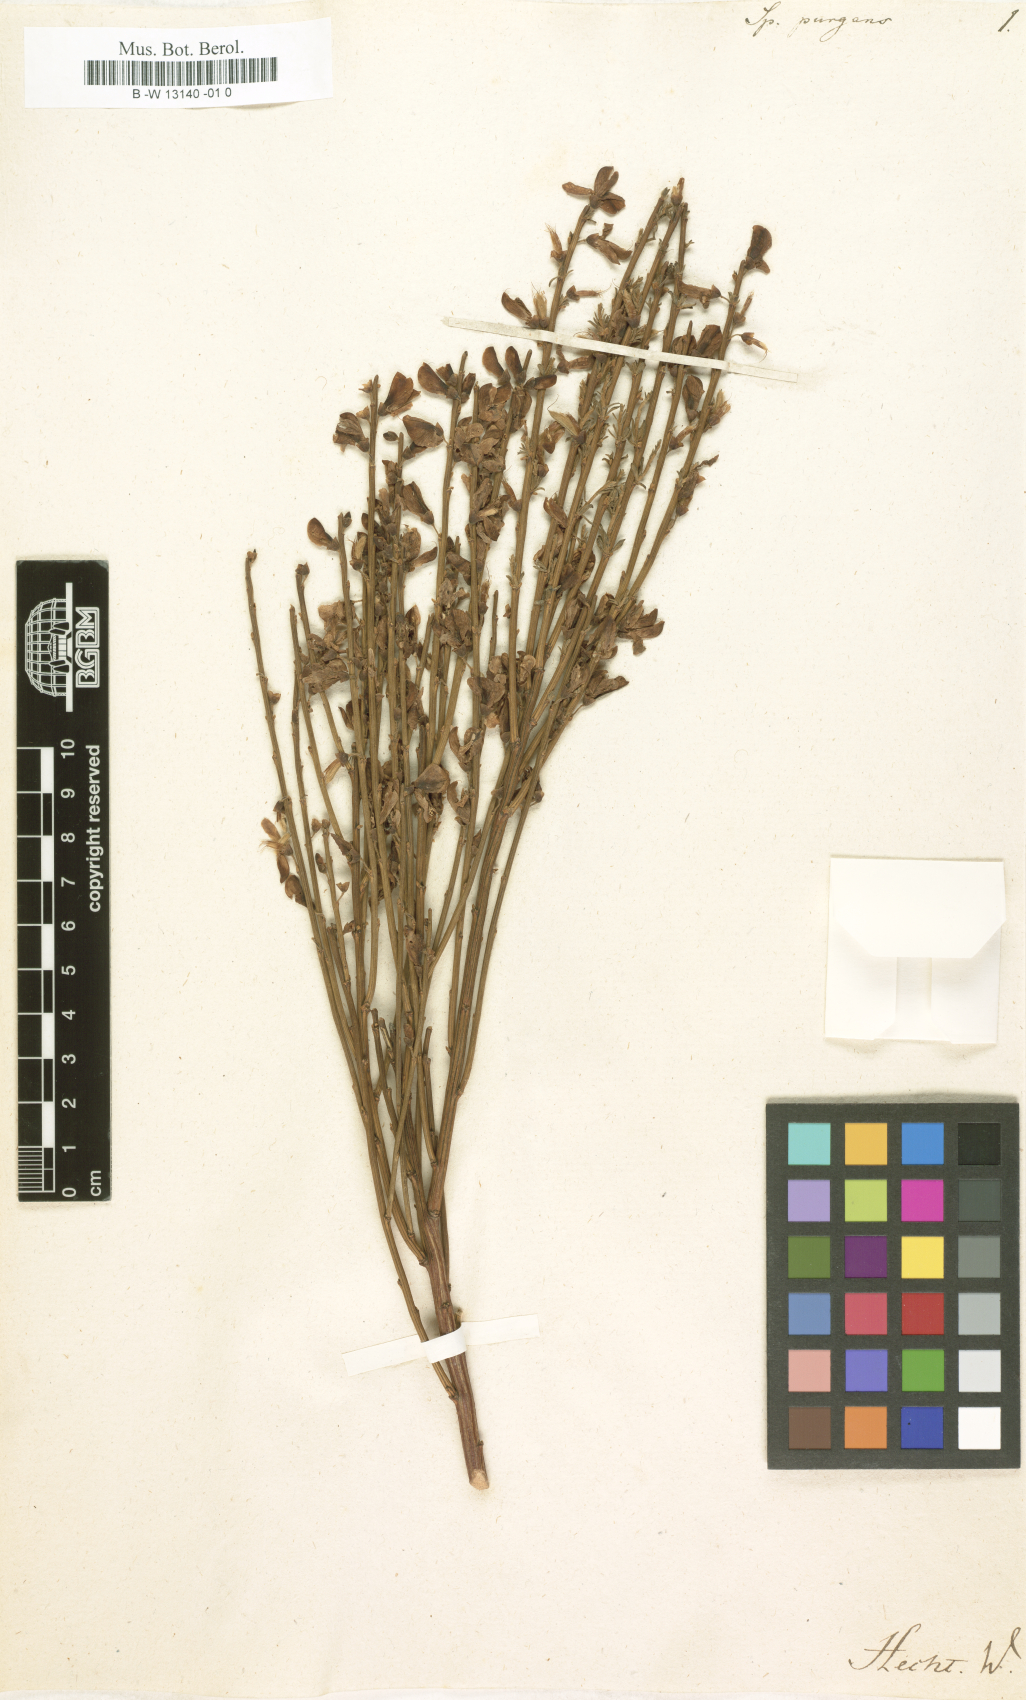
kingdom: Plantae
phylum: Tracheophyta
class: Magnoliopsida
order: Fabales
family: Fabaceae
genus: Genista
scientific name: Genista scorpius
